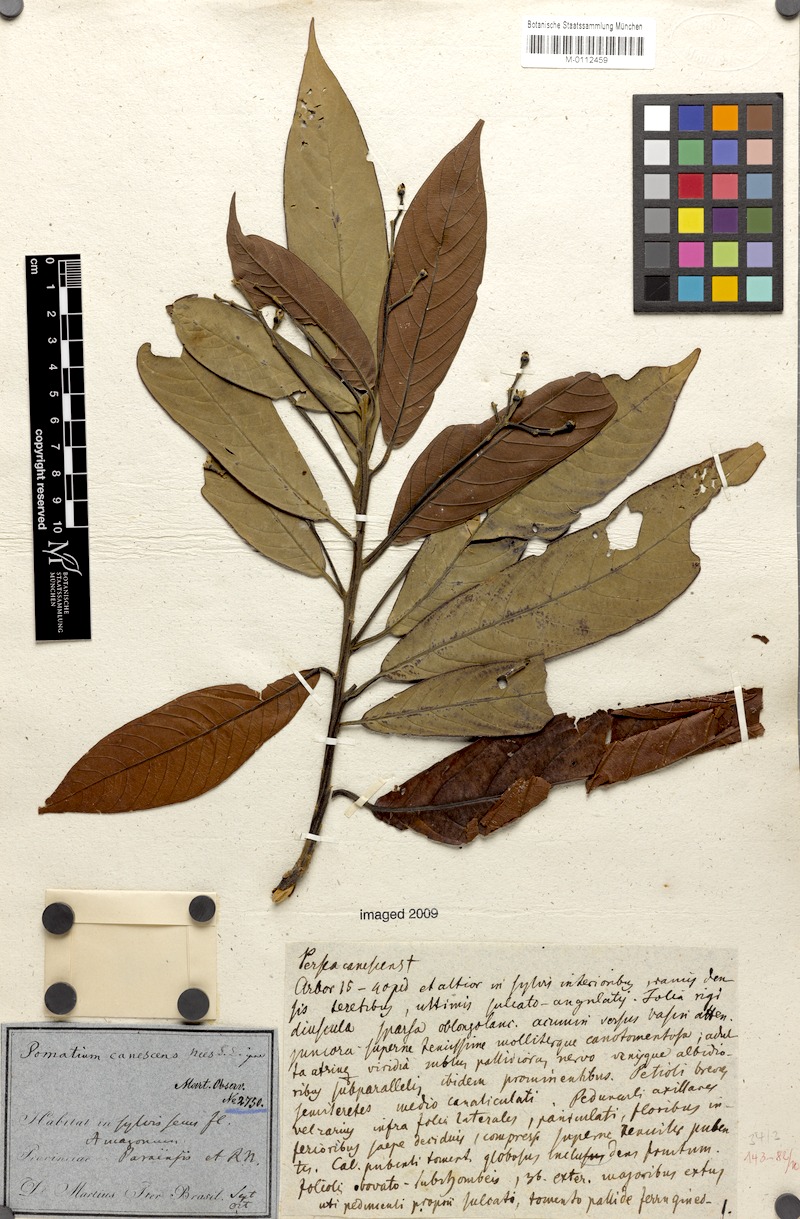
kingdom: Plantae
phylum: Tracheophyta
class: Magnoliopsida
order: Laurales
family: Lauraceae
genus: Nectandra
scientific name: Nectandra canescens
